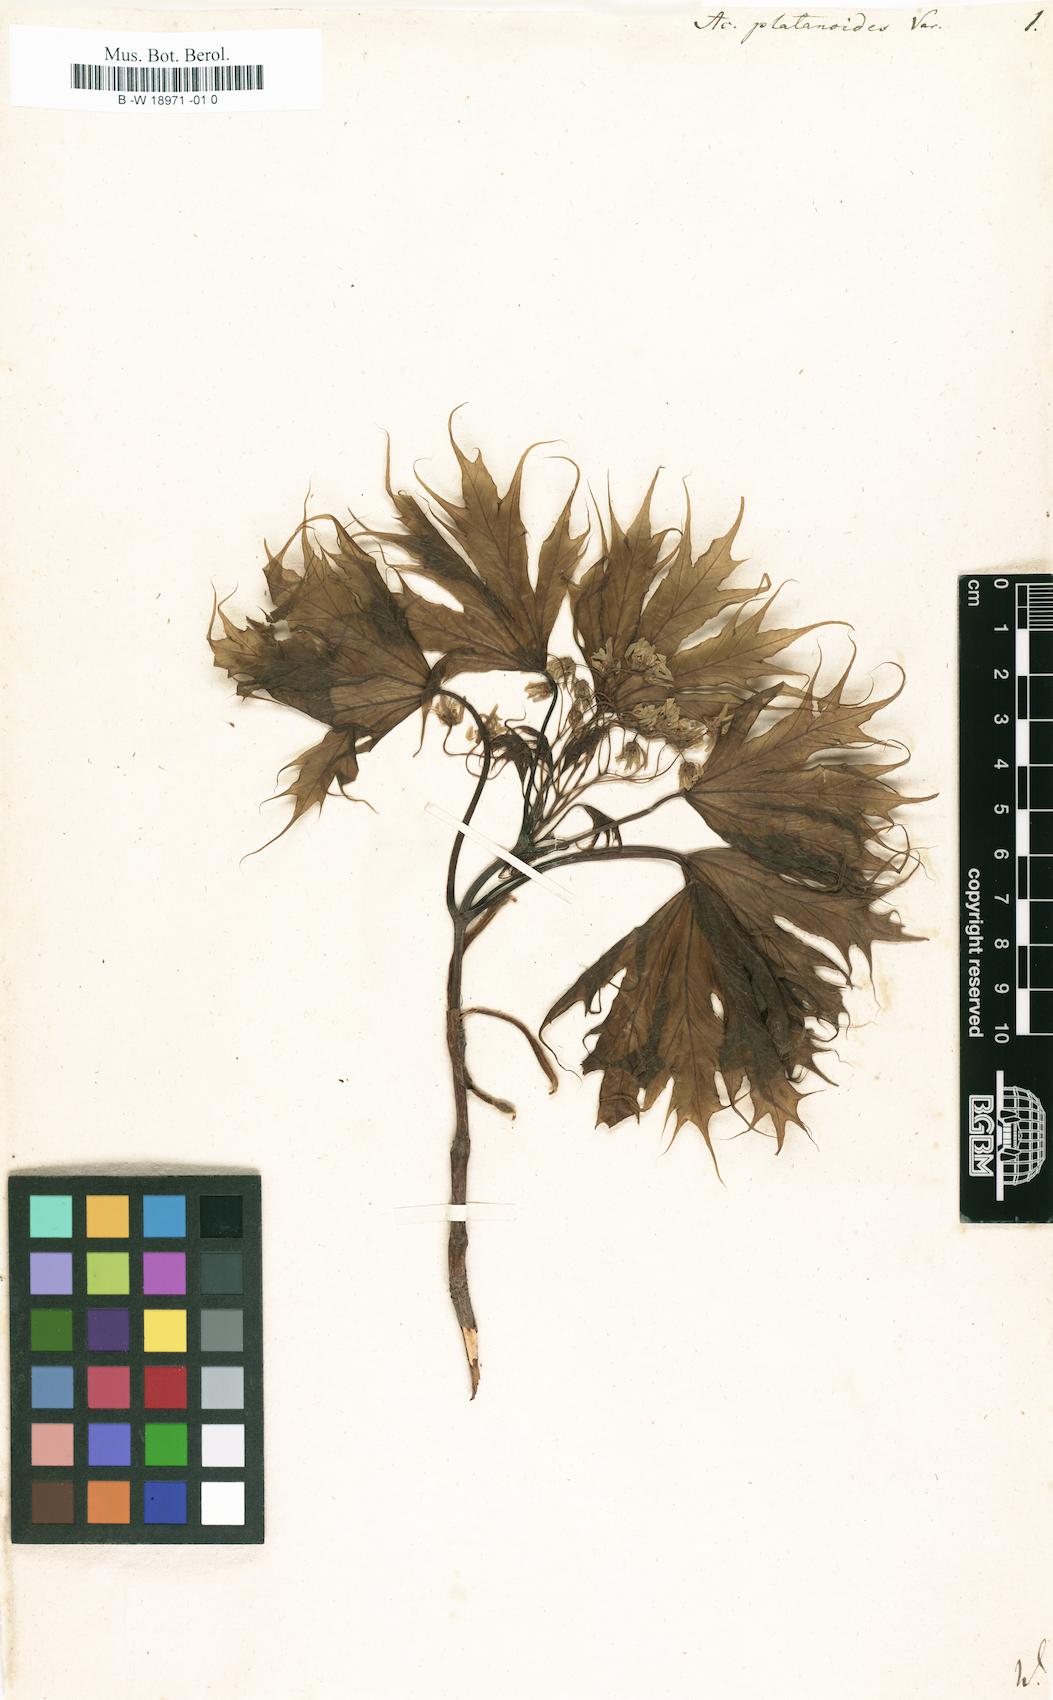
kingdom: Plantae
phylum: Tracheophyta
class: Magnoliopsida
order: Sapindales
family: Sapindaceae
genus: Acer
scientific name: Acer platanoides
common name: Norway maple
